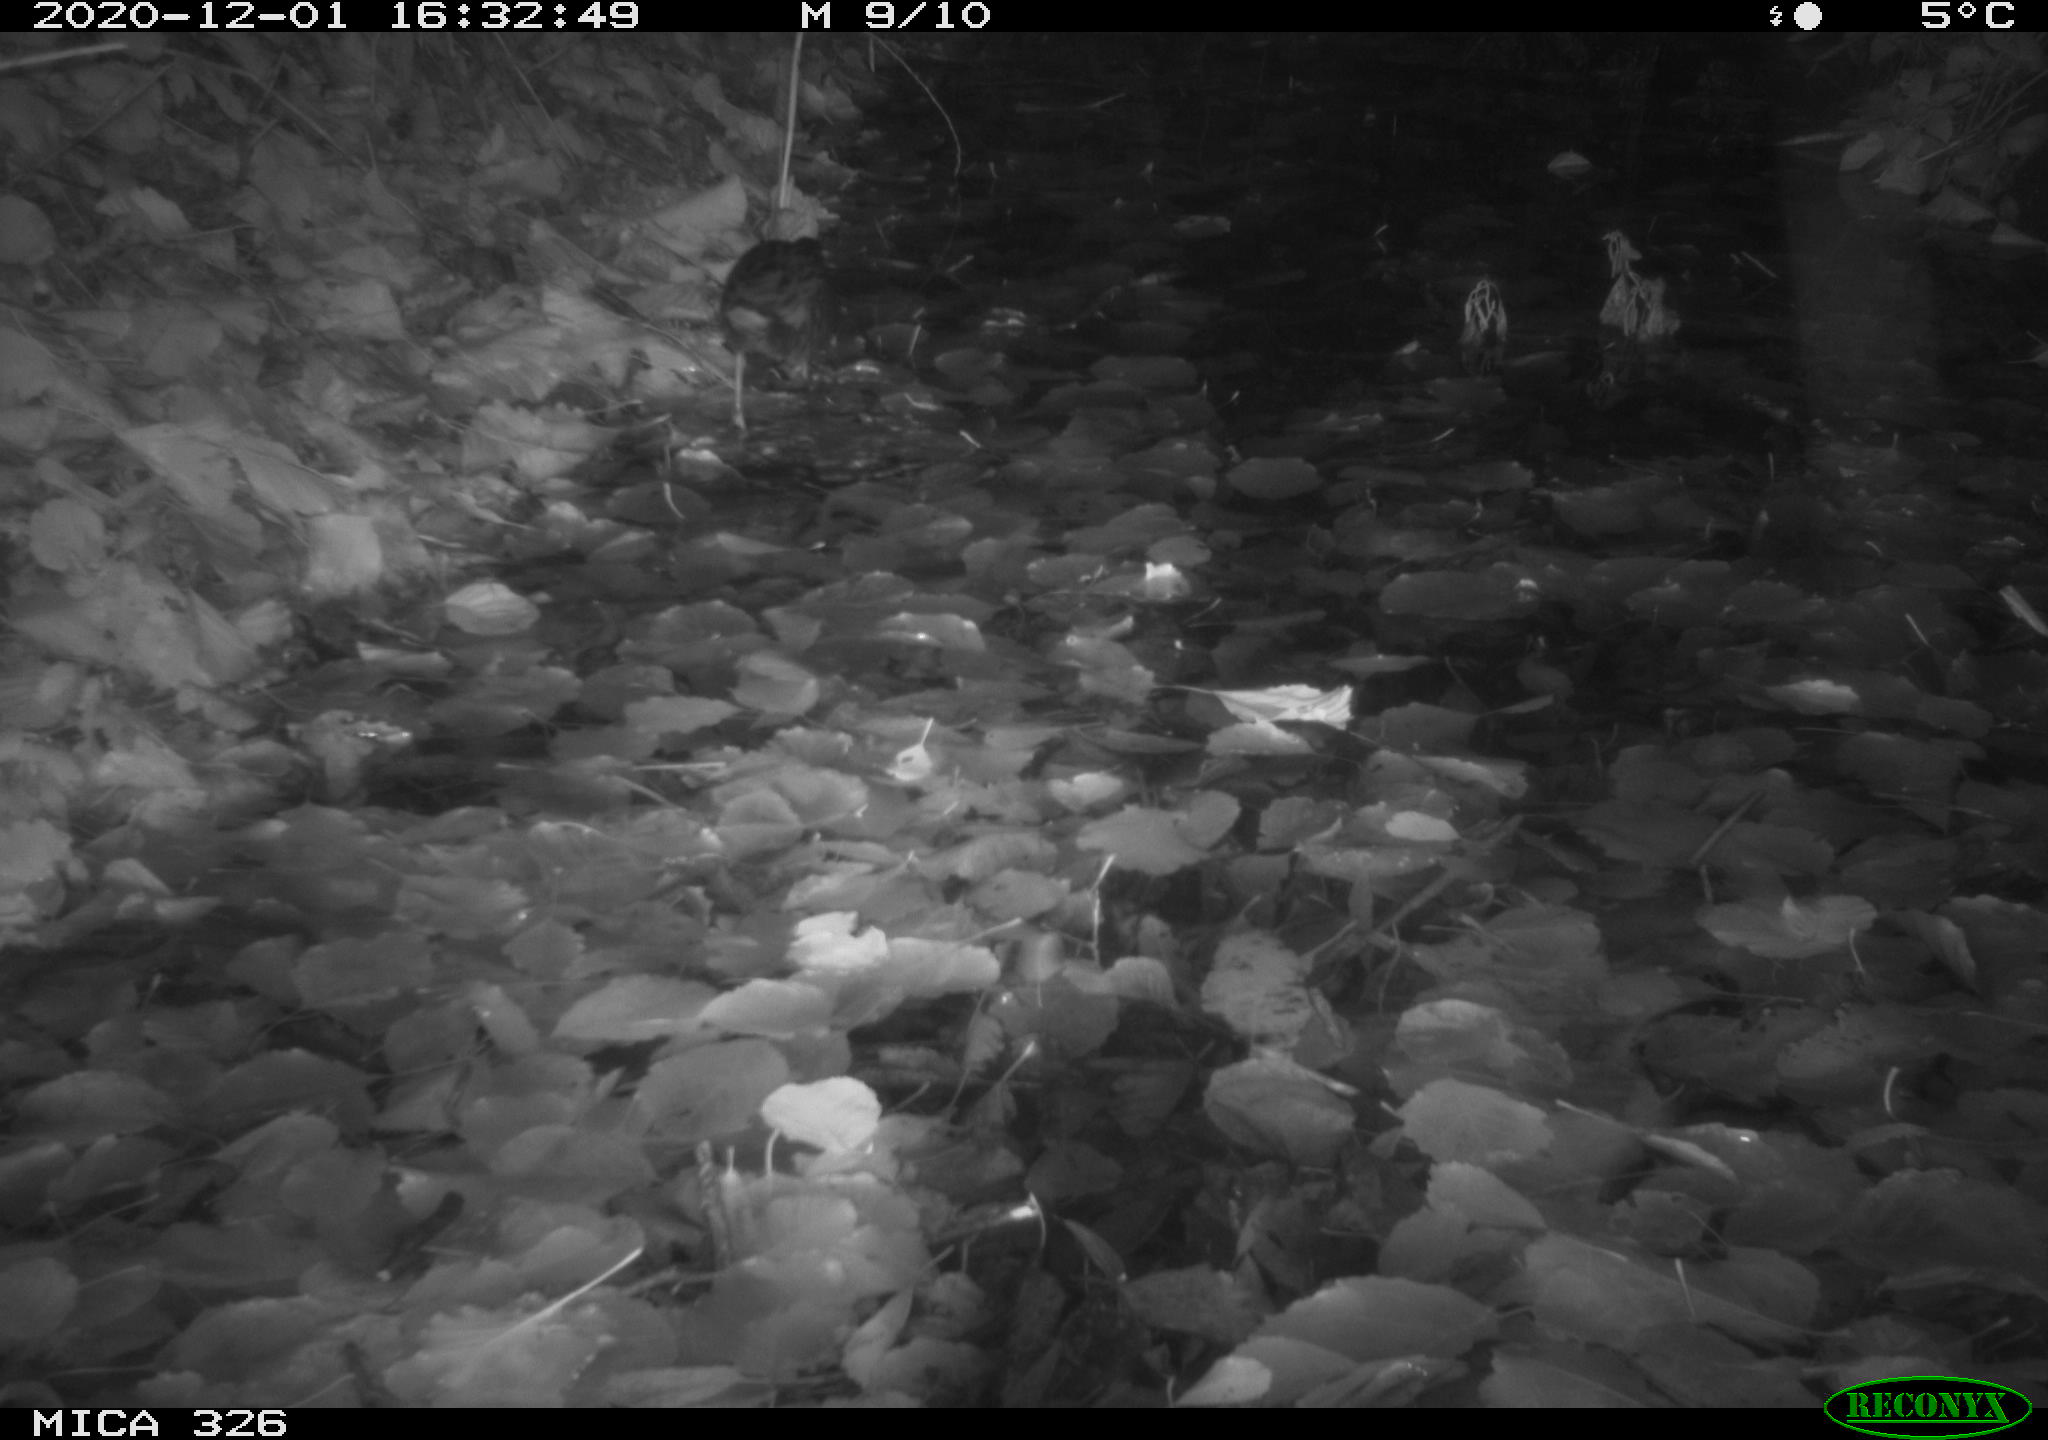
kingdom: Animalia
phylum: Chordata
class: Aves
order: Gruiformes
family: Rallidae
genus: Rallus
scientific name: Rallus aquaticus
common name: Water rail
